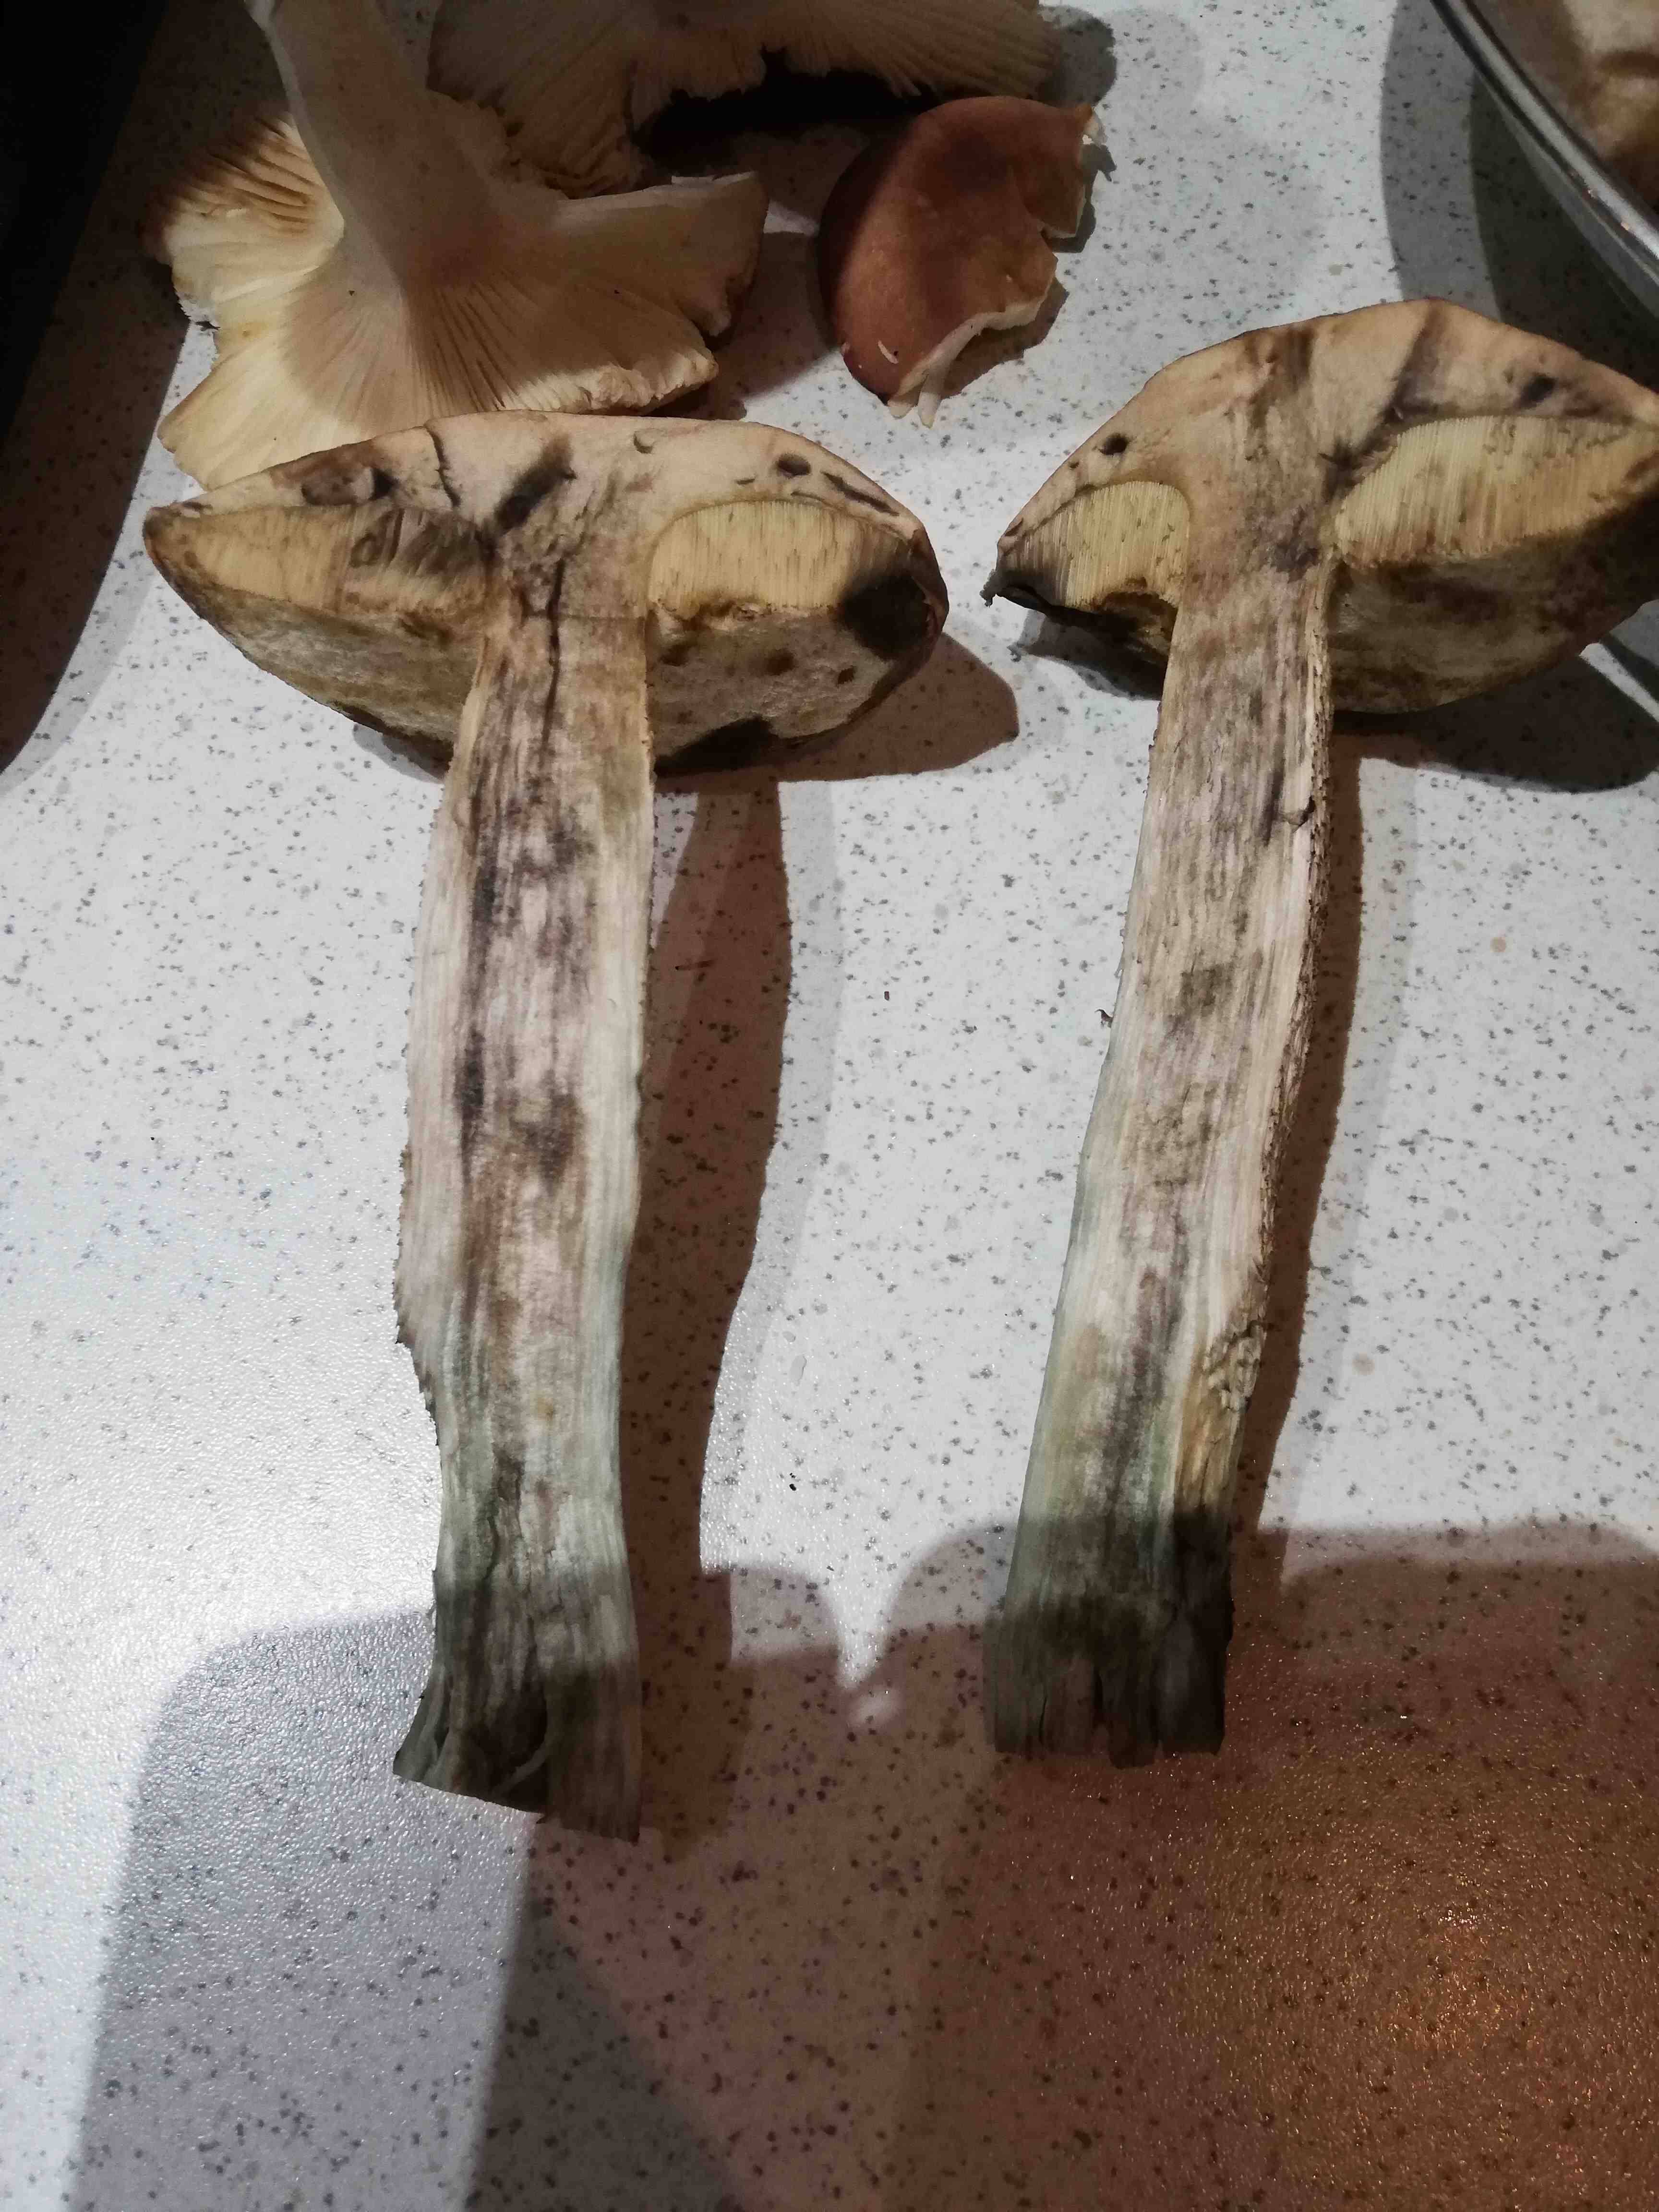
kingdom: Fungi
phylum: Basidiomycota
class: Agaricomycetes
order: Boletales
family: Boletaceae
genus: Leccinum
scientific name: Leccinum albostipitatum
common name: aspe-skælrørhat
